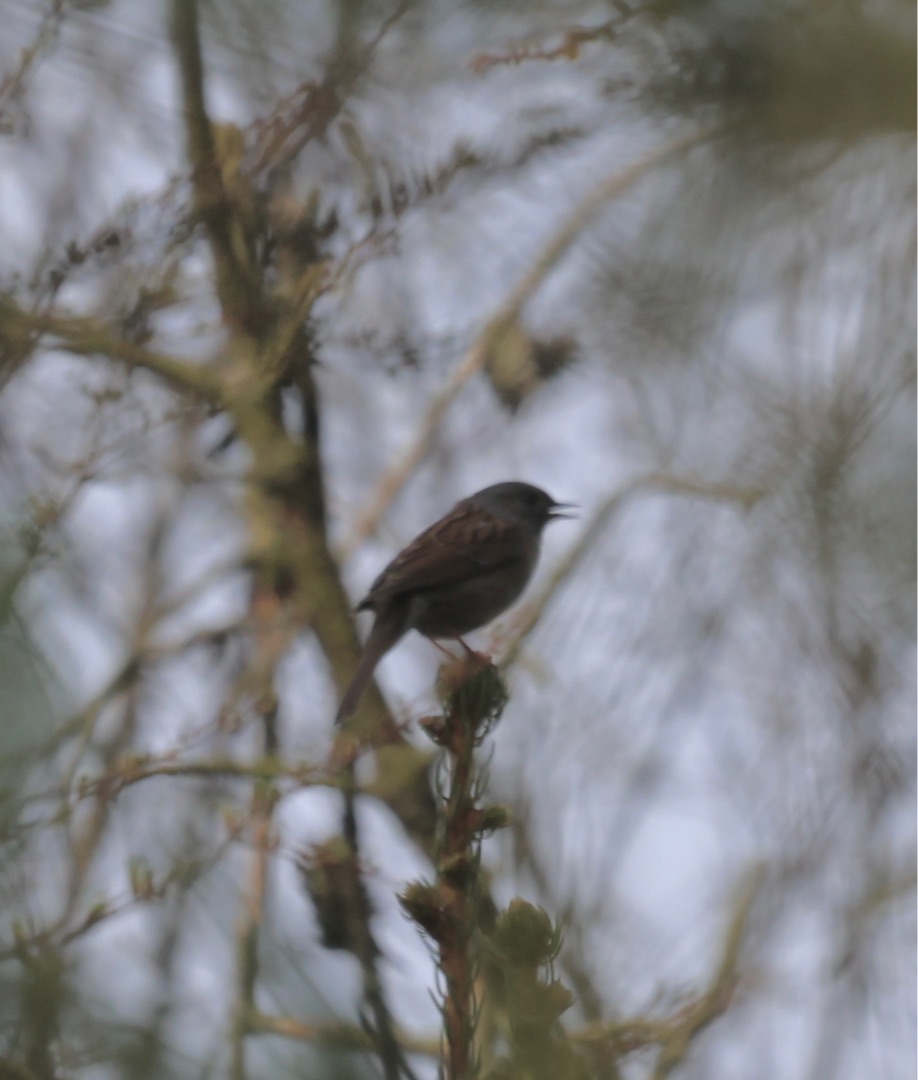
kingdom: Animalia
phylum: Chordata
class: Aves
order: Passeriformes
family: Prunellidae
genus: Prunella
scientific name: Prunella modularis
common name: Jernspurv
